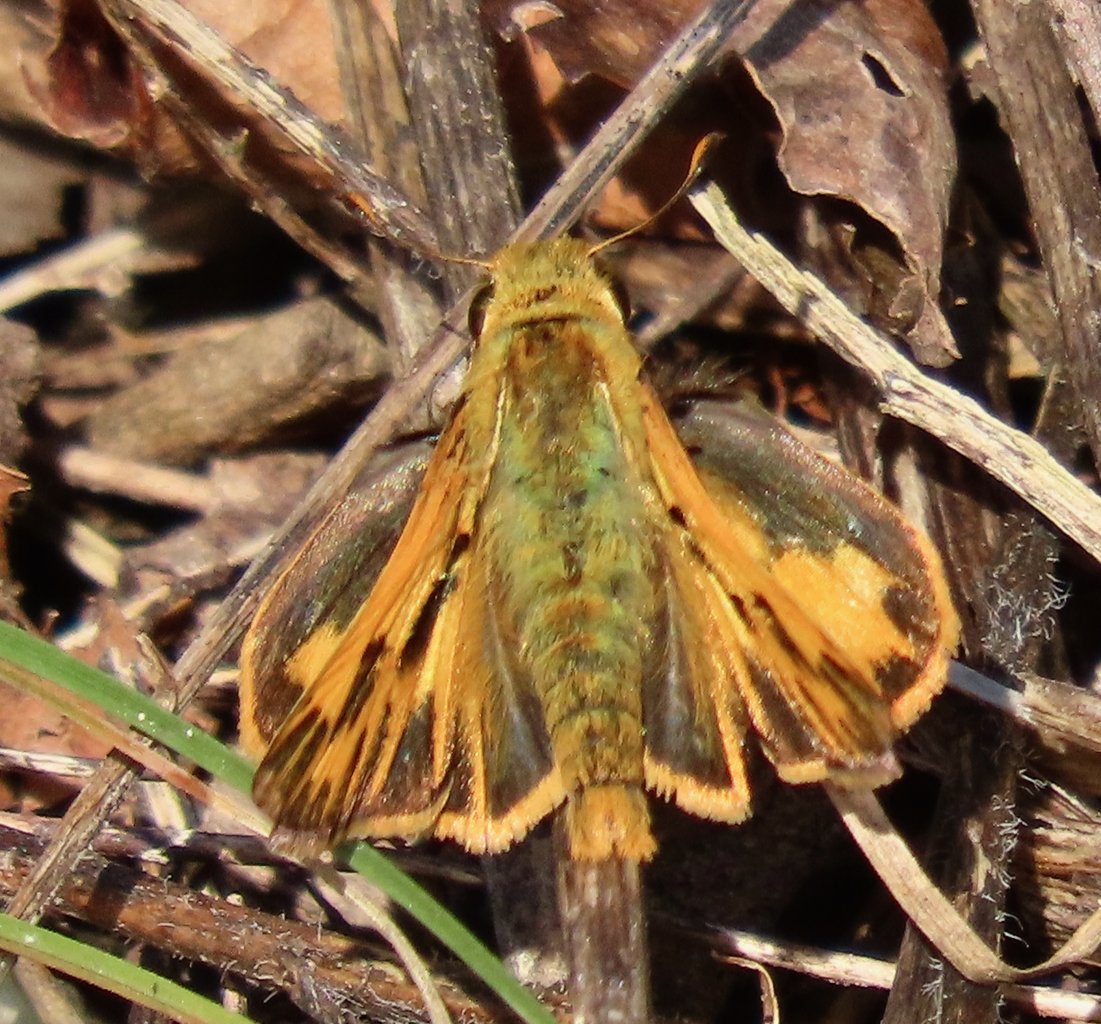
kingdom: Animalia
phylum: Arthropoda
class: Insecta
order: Lepidoptera
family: Hesperiidae
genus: Hylephila
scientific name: Hylephila phyleus
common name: Fiery Skipper
